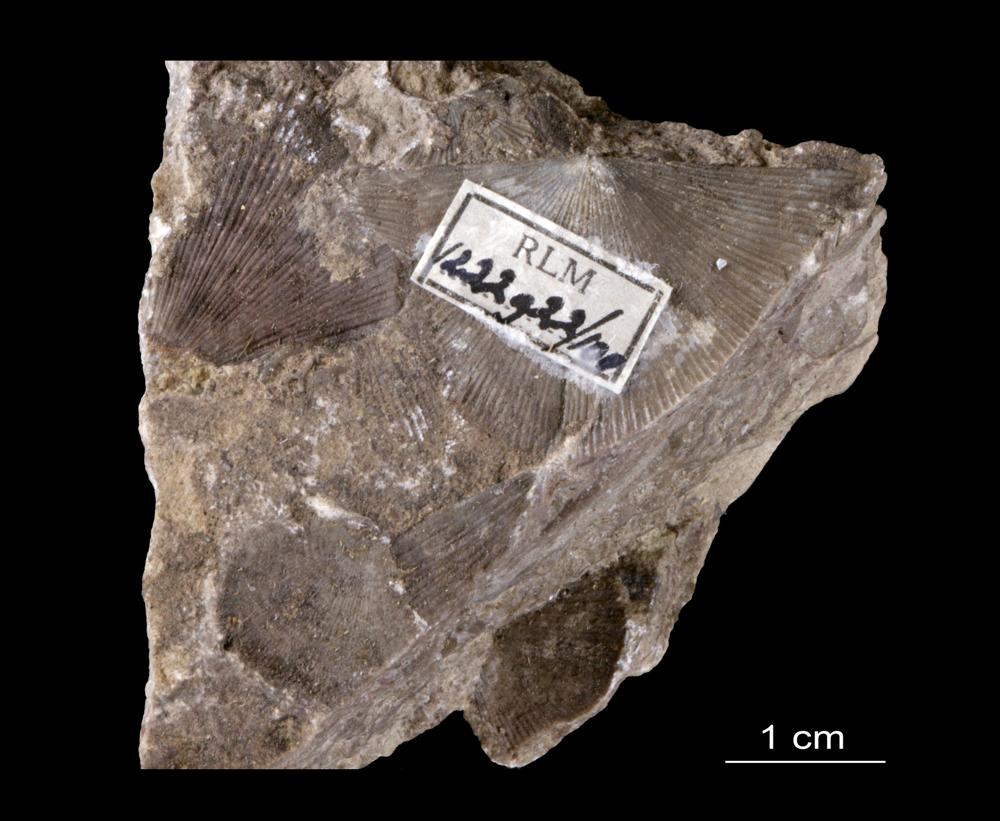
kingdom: Animalia
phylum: Brachiopoda
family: Strophomenidae
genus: Strophomena
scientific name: Strophomena
